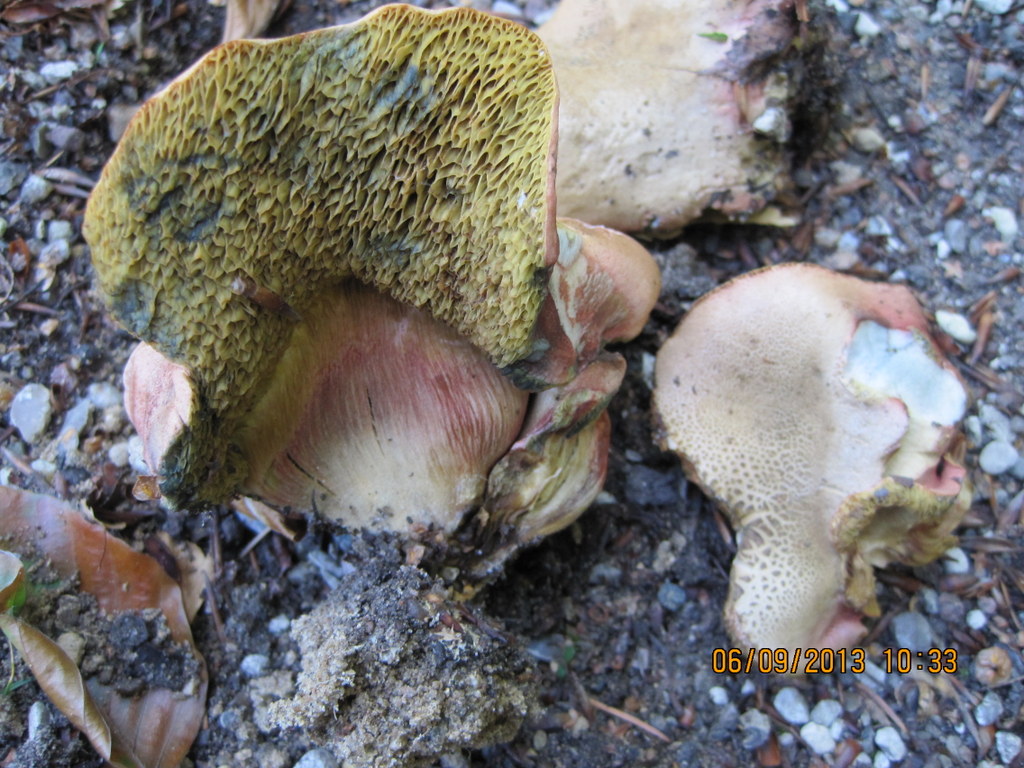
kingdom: Fungi
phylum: Basidiomycota
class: Agaricomycetes
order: Boletales
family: Boletaceae
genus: Hortiboletus
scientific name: Hortiboletus rubellus
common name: blodrød rørhat
